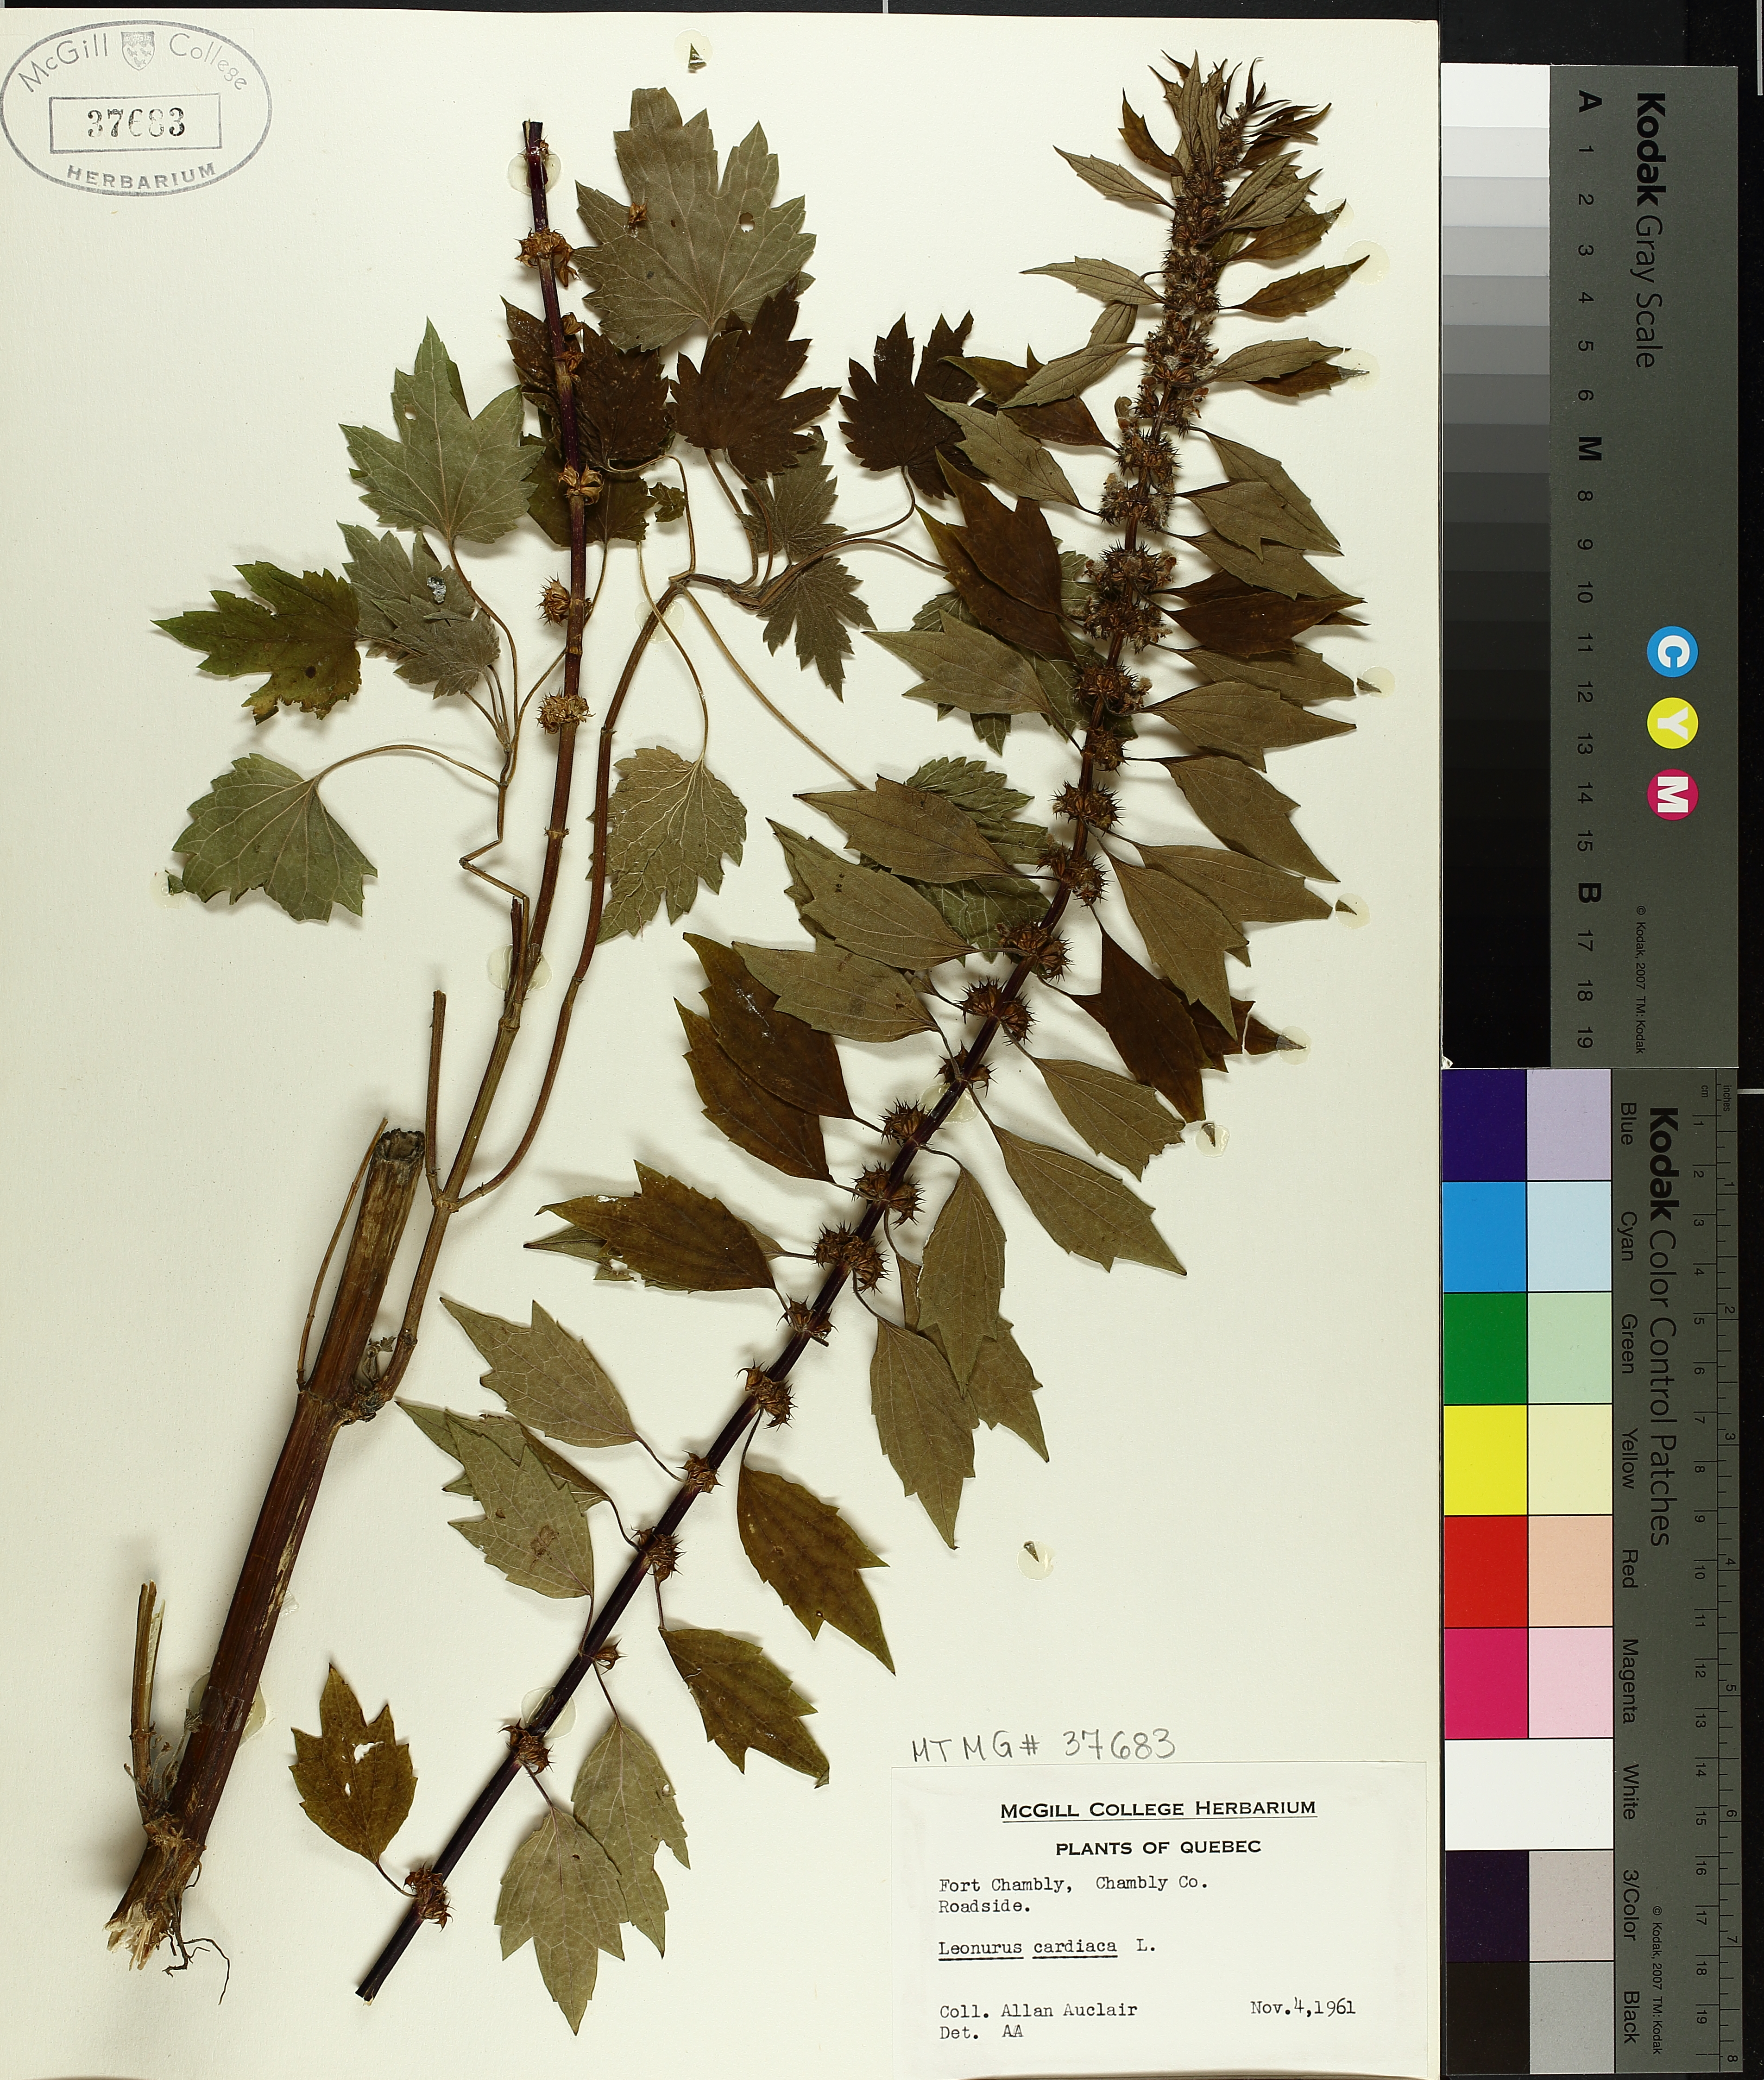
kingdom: Plantae
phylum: Tracheophyta
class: Magnoliopsida
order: Lamiales
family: Lamiaceae
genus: Leonurus
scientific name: Leonurus cardiaca
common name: Motherwort
